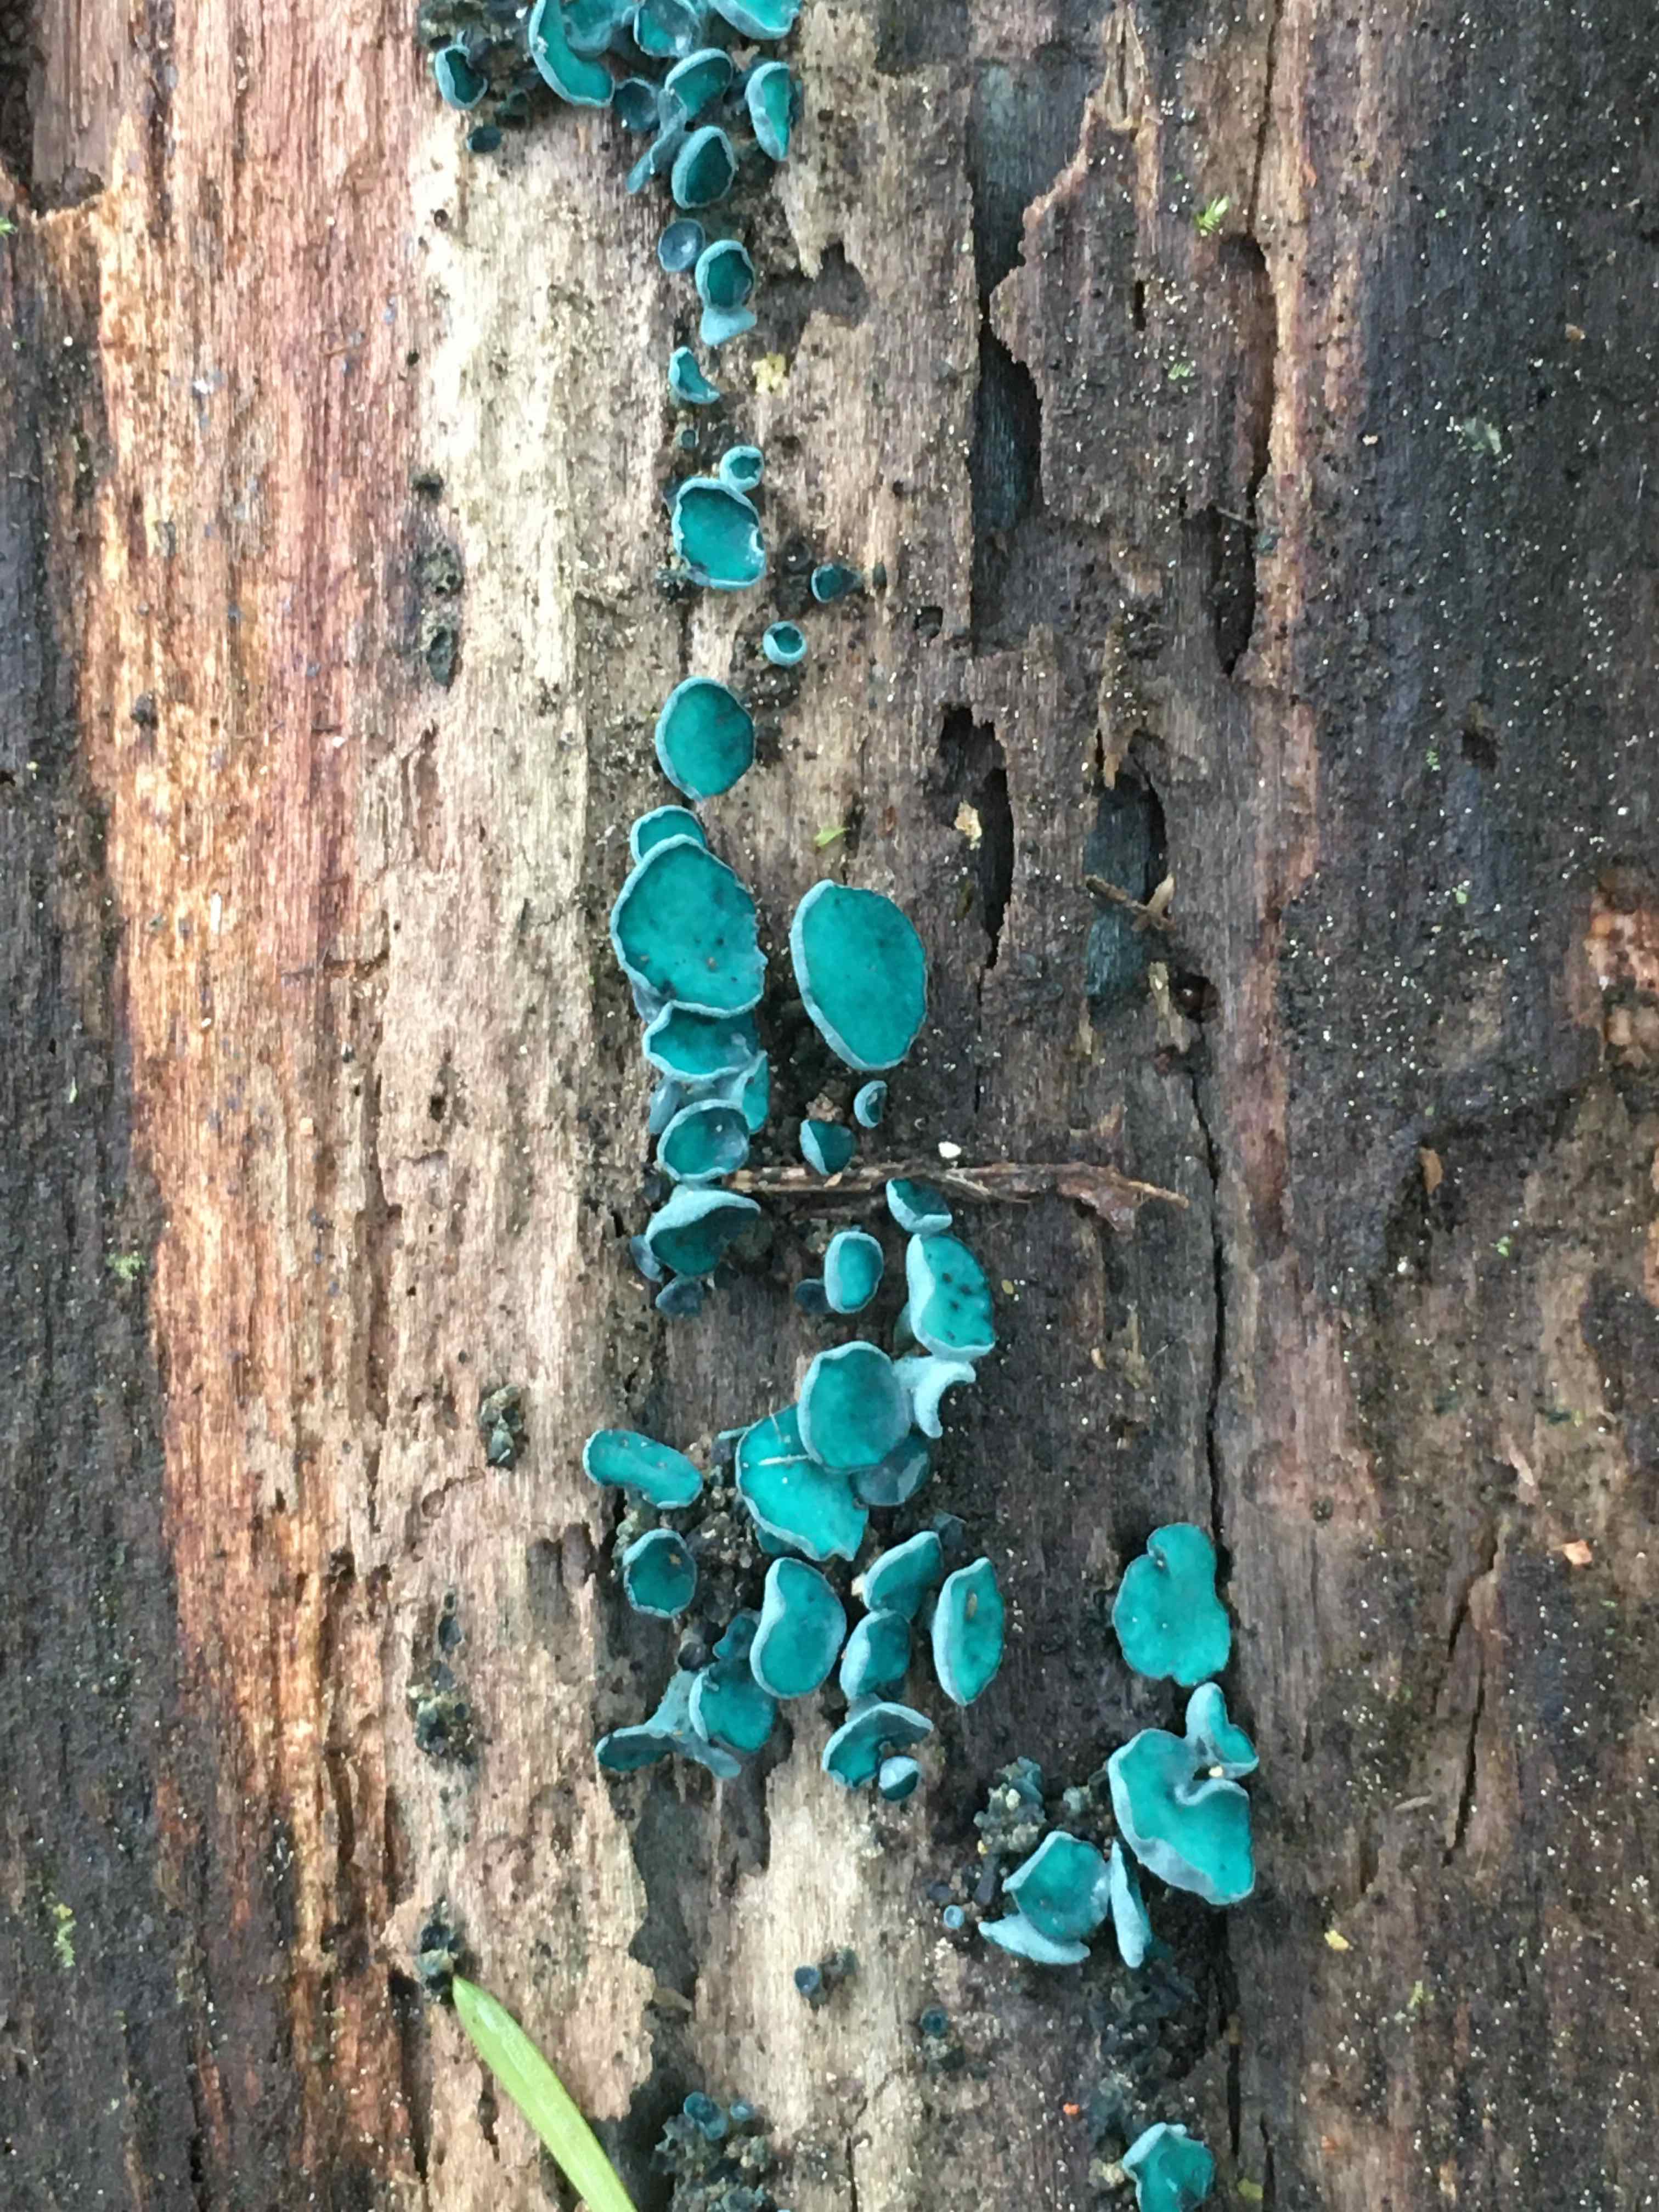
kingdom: Fungi
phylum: Ascomycota
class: Leotiomycetes
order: Helotiales
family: Chlorociboriaceae
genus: Chlorociboria
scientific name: Chlorociboria aeruginascens
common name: almindelig grønskive
